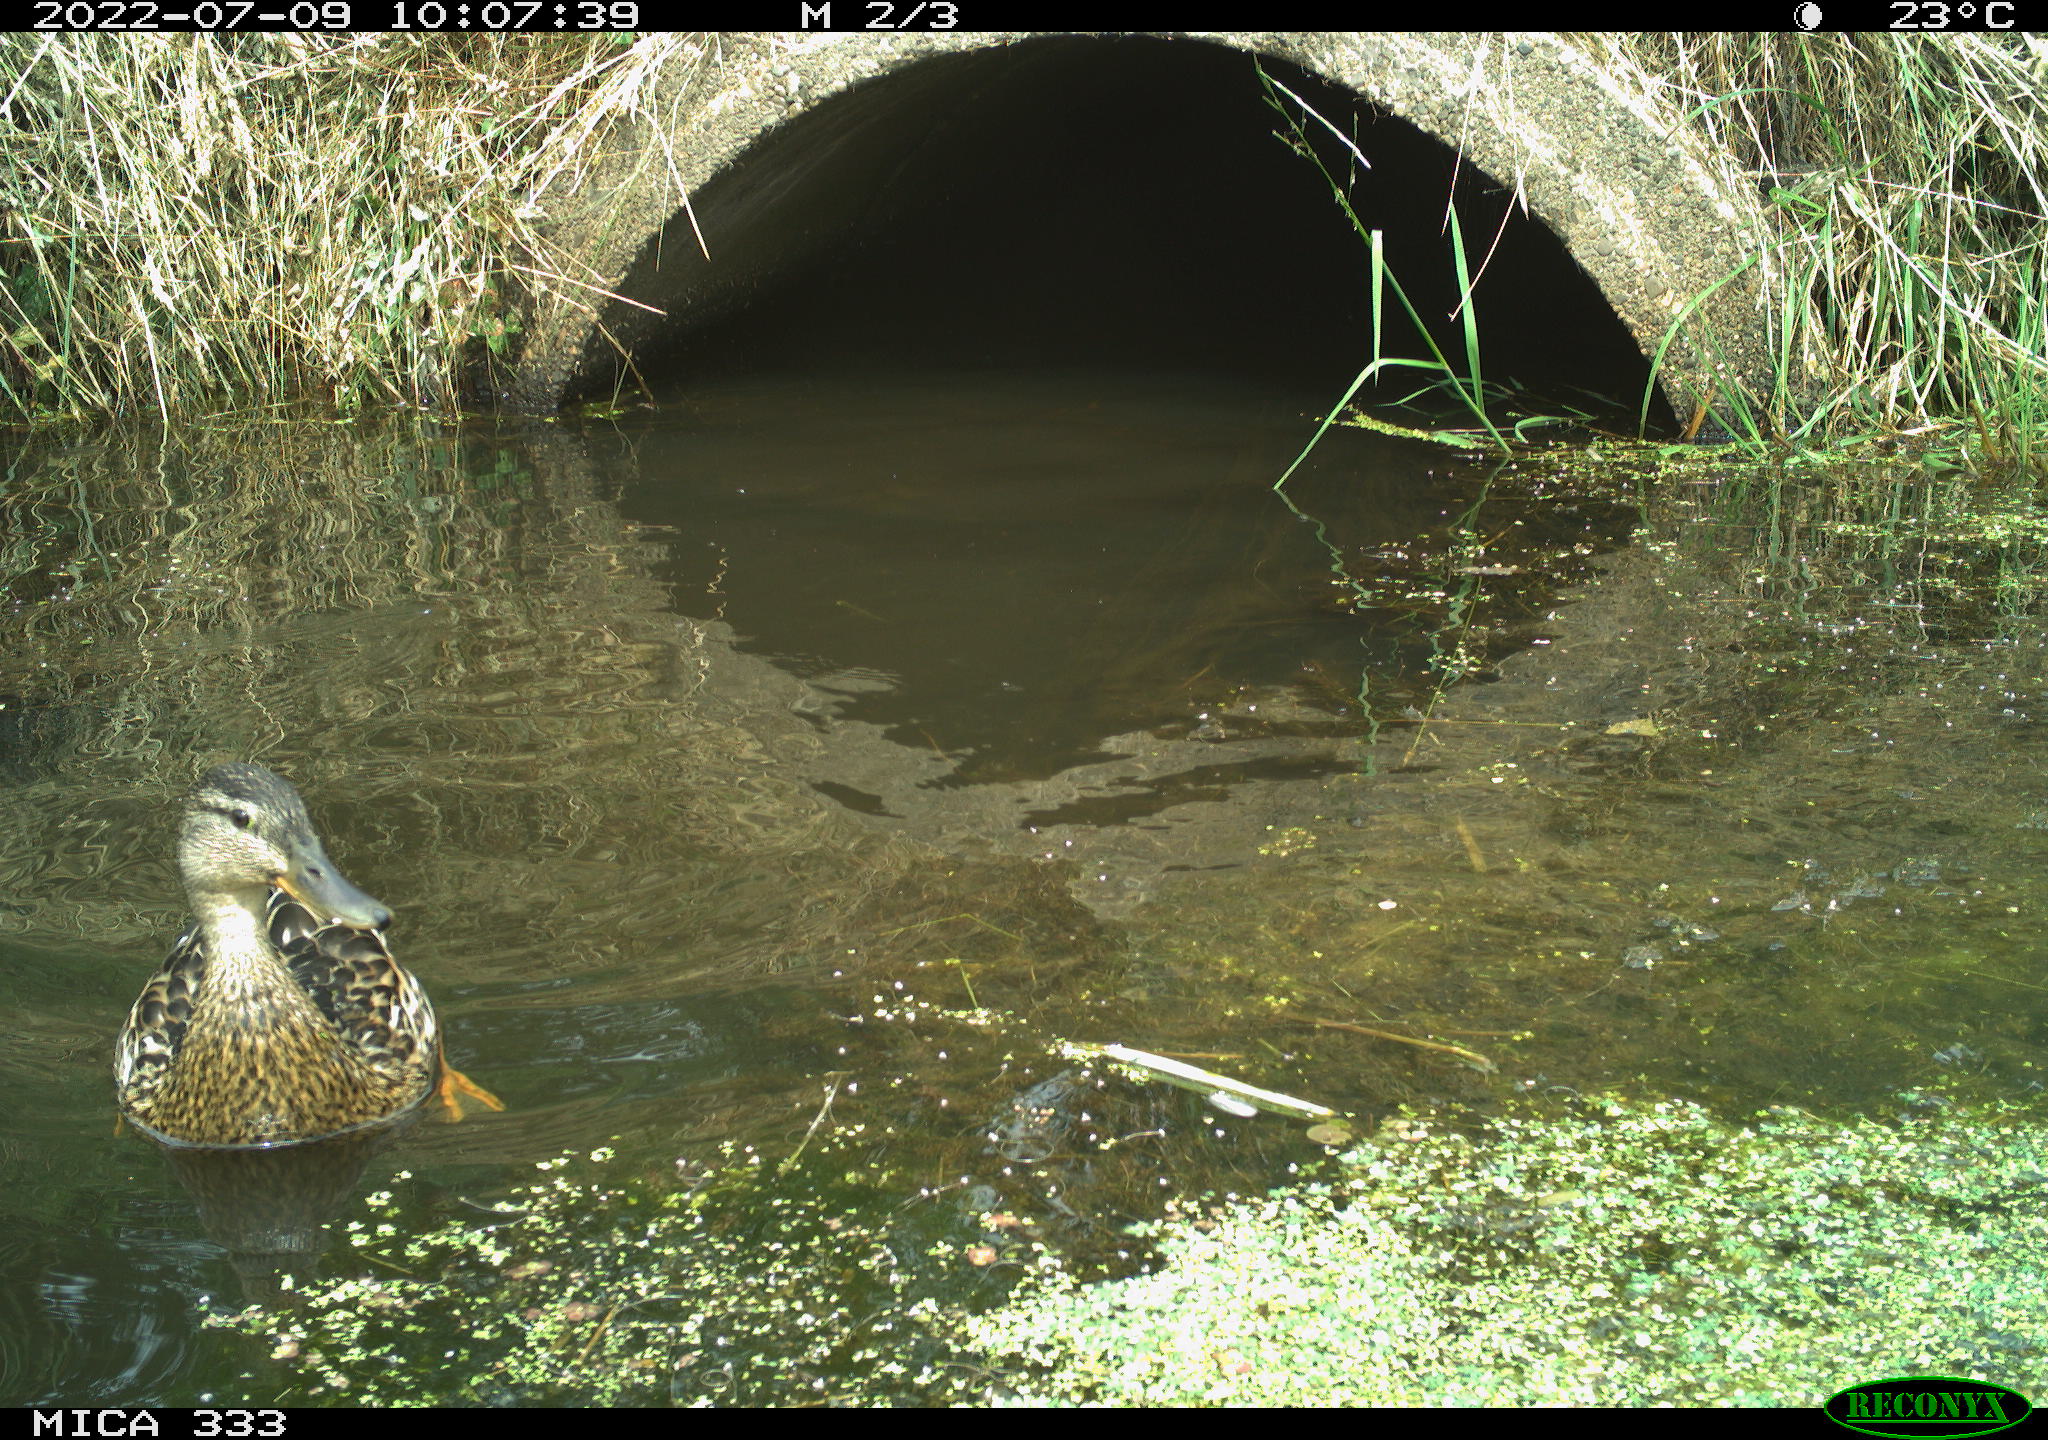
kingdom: Animalia
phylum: Chordata
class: Aves
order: Anseriformes
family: Anatidae
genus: Mareca
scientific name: Mareca strepera
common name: Gadwall
